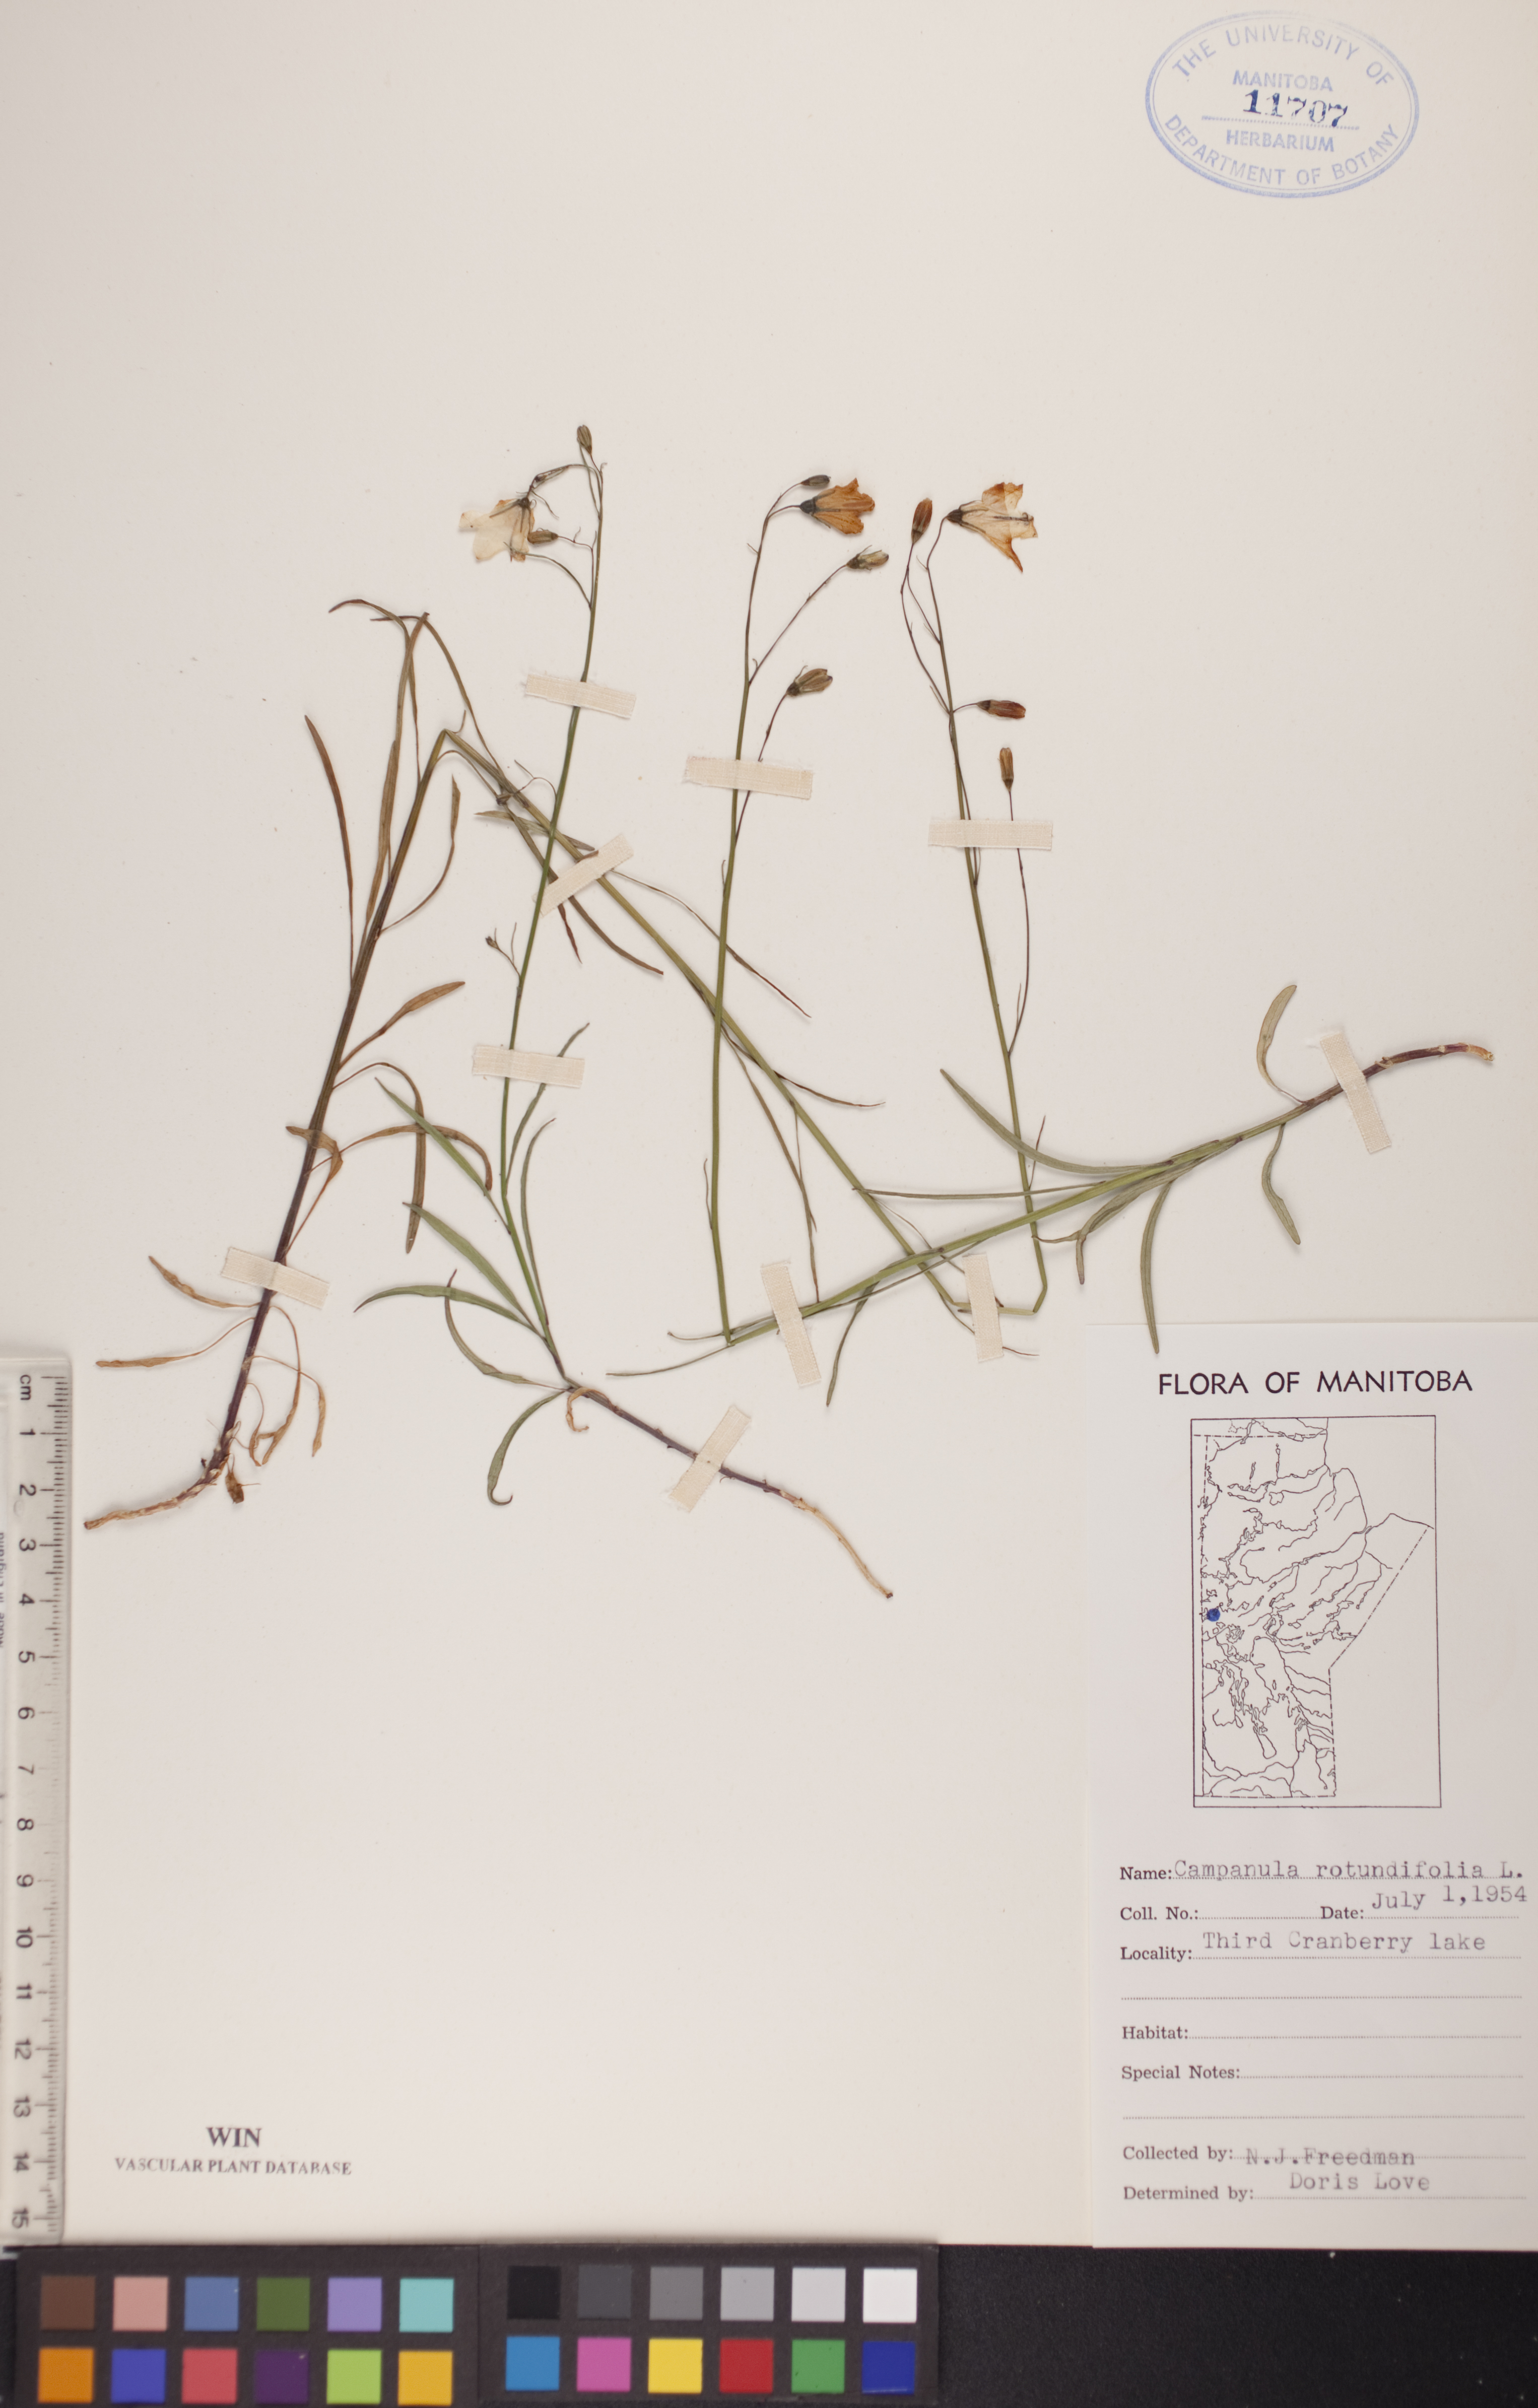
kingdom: Plantae
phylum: Tracheophyta
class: Magnoliopsida
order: Asterales
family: Campanulaceae
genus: Campanula
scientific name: Campanula rotundifolia
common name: Harebell
